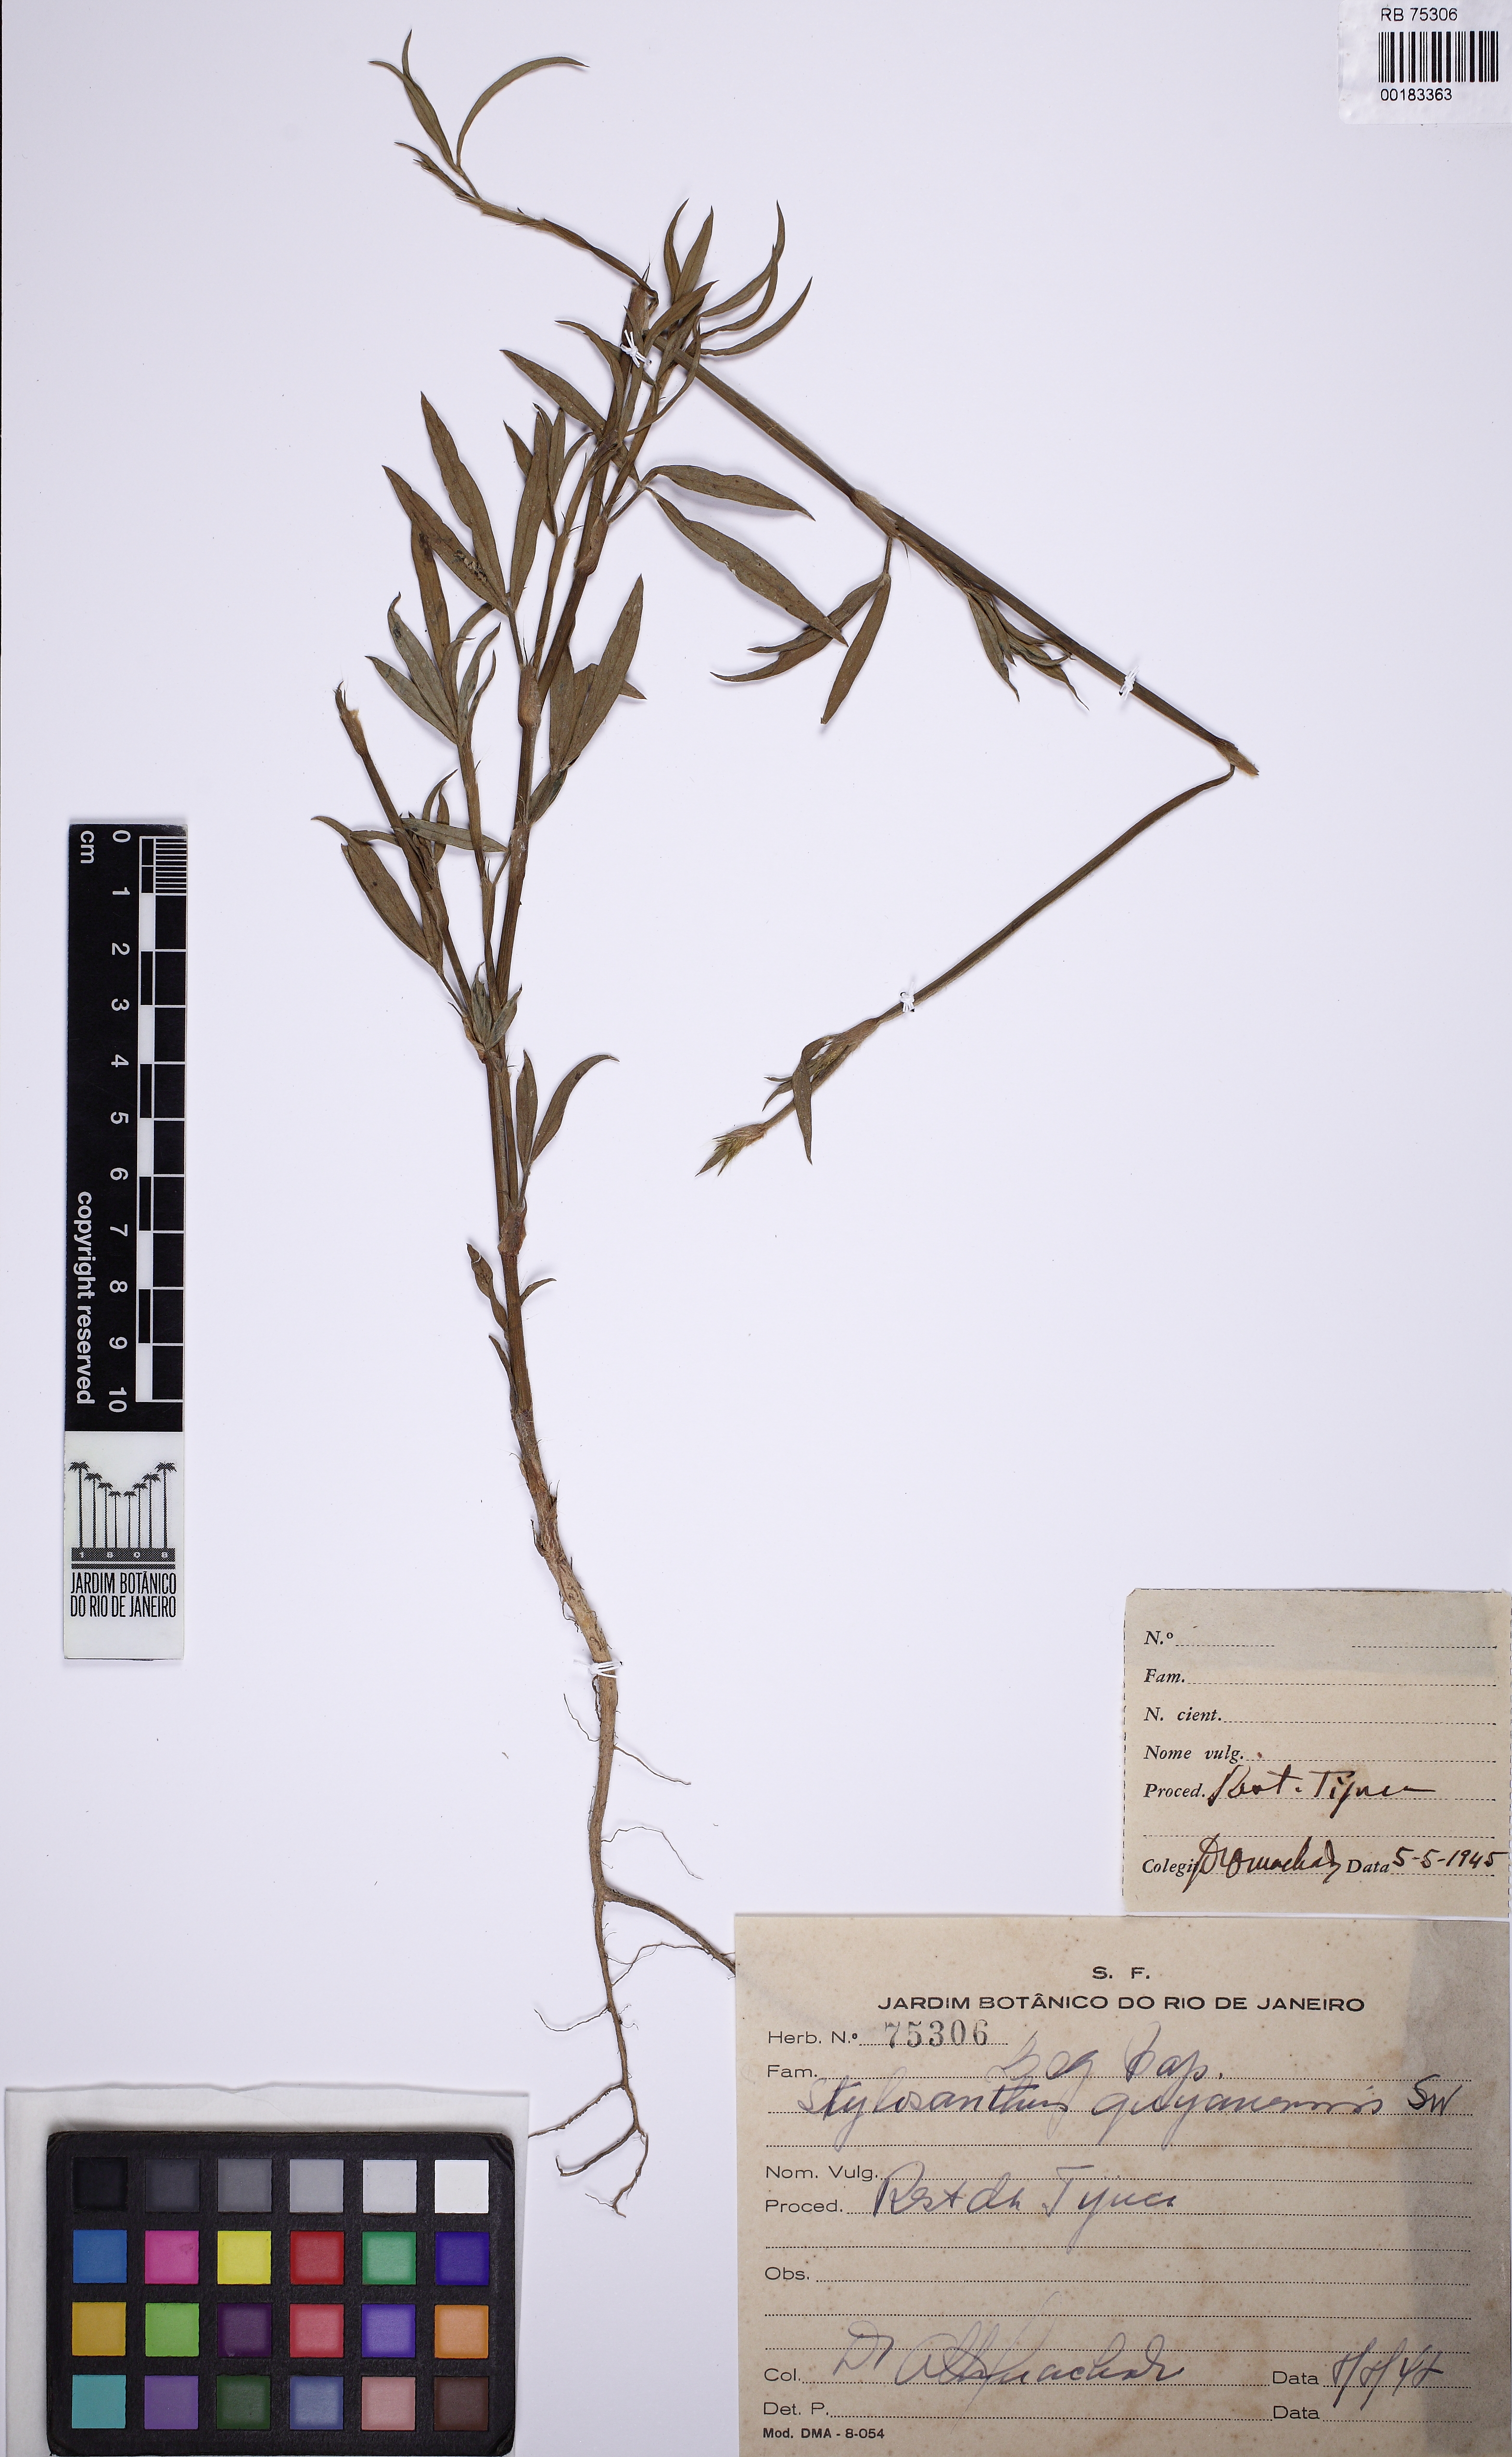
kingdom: Plantae
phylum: Tracheophyta
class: Magnoliopsida
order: Fabales
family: Fabaceae
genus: Stylosanthes
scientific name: Stylosanthes guianensis
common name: Pencil flower
